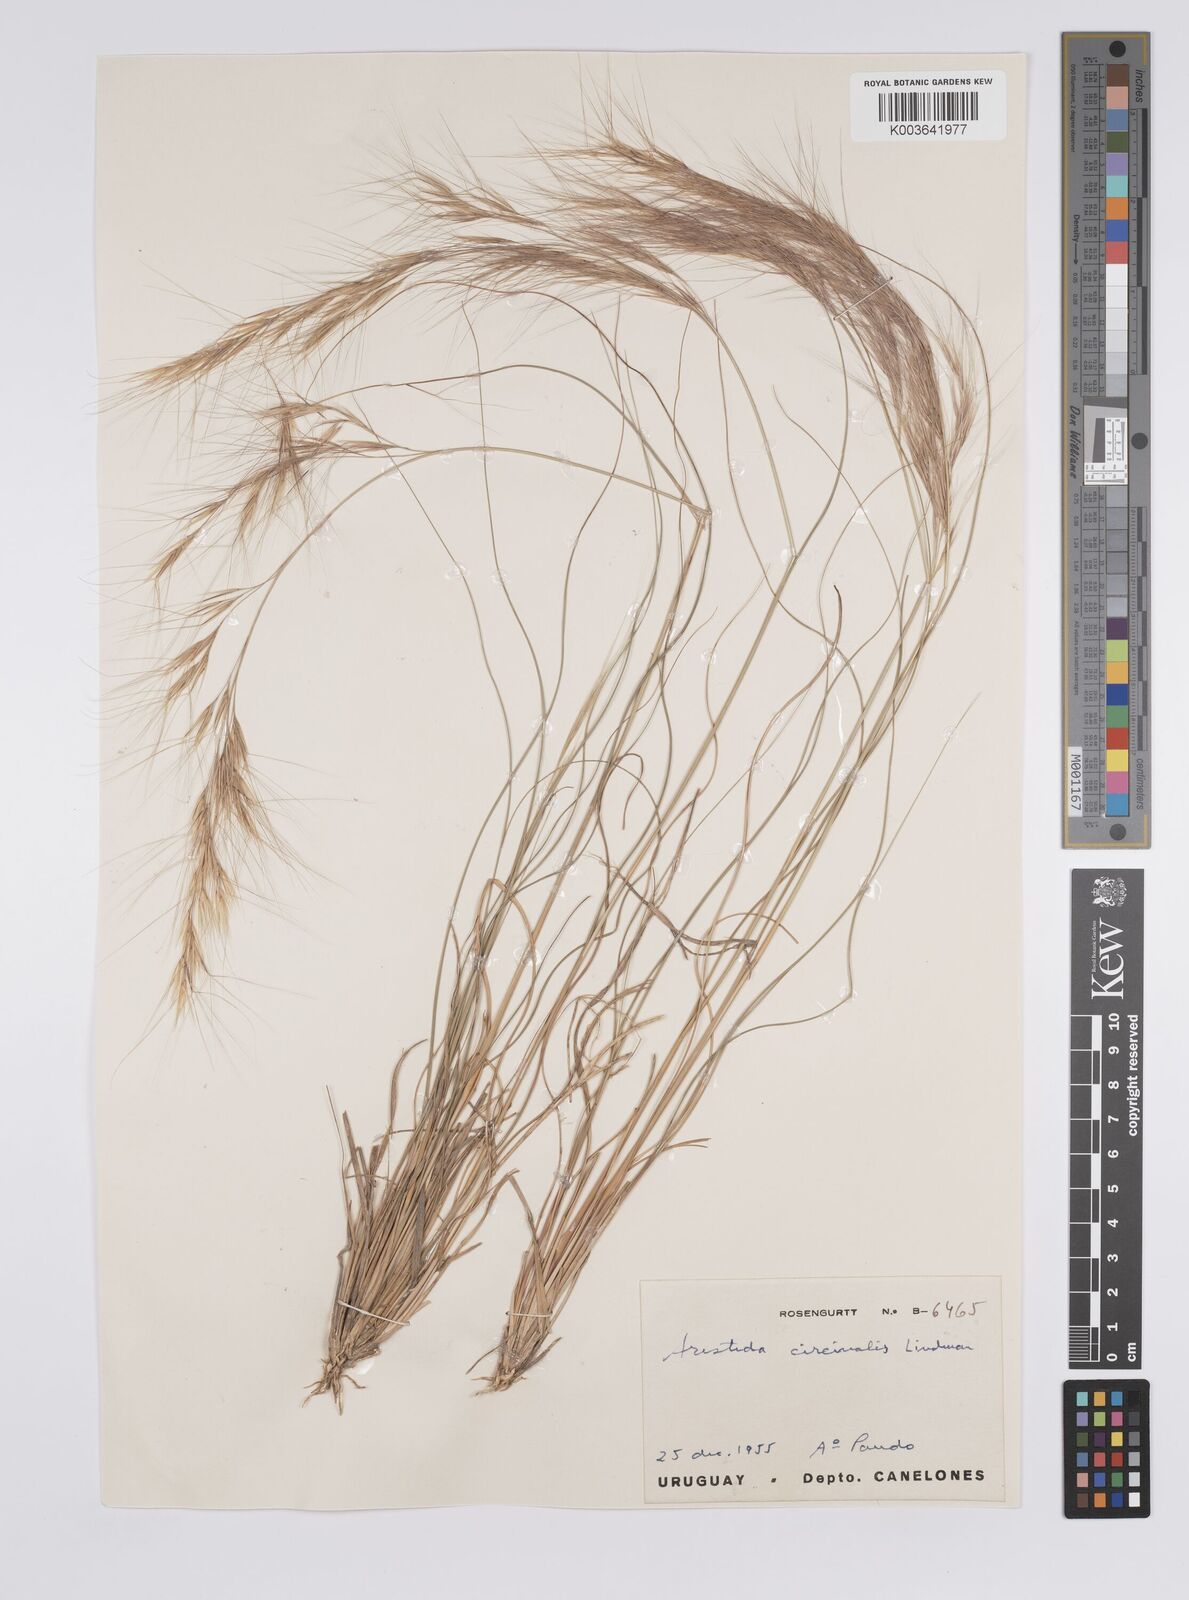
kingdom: Plantae
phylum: Tracheophyta
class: Liliopsida
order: Poales
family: Poaceae
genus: Aristida
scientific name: Aristida circinalis
